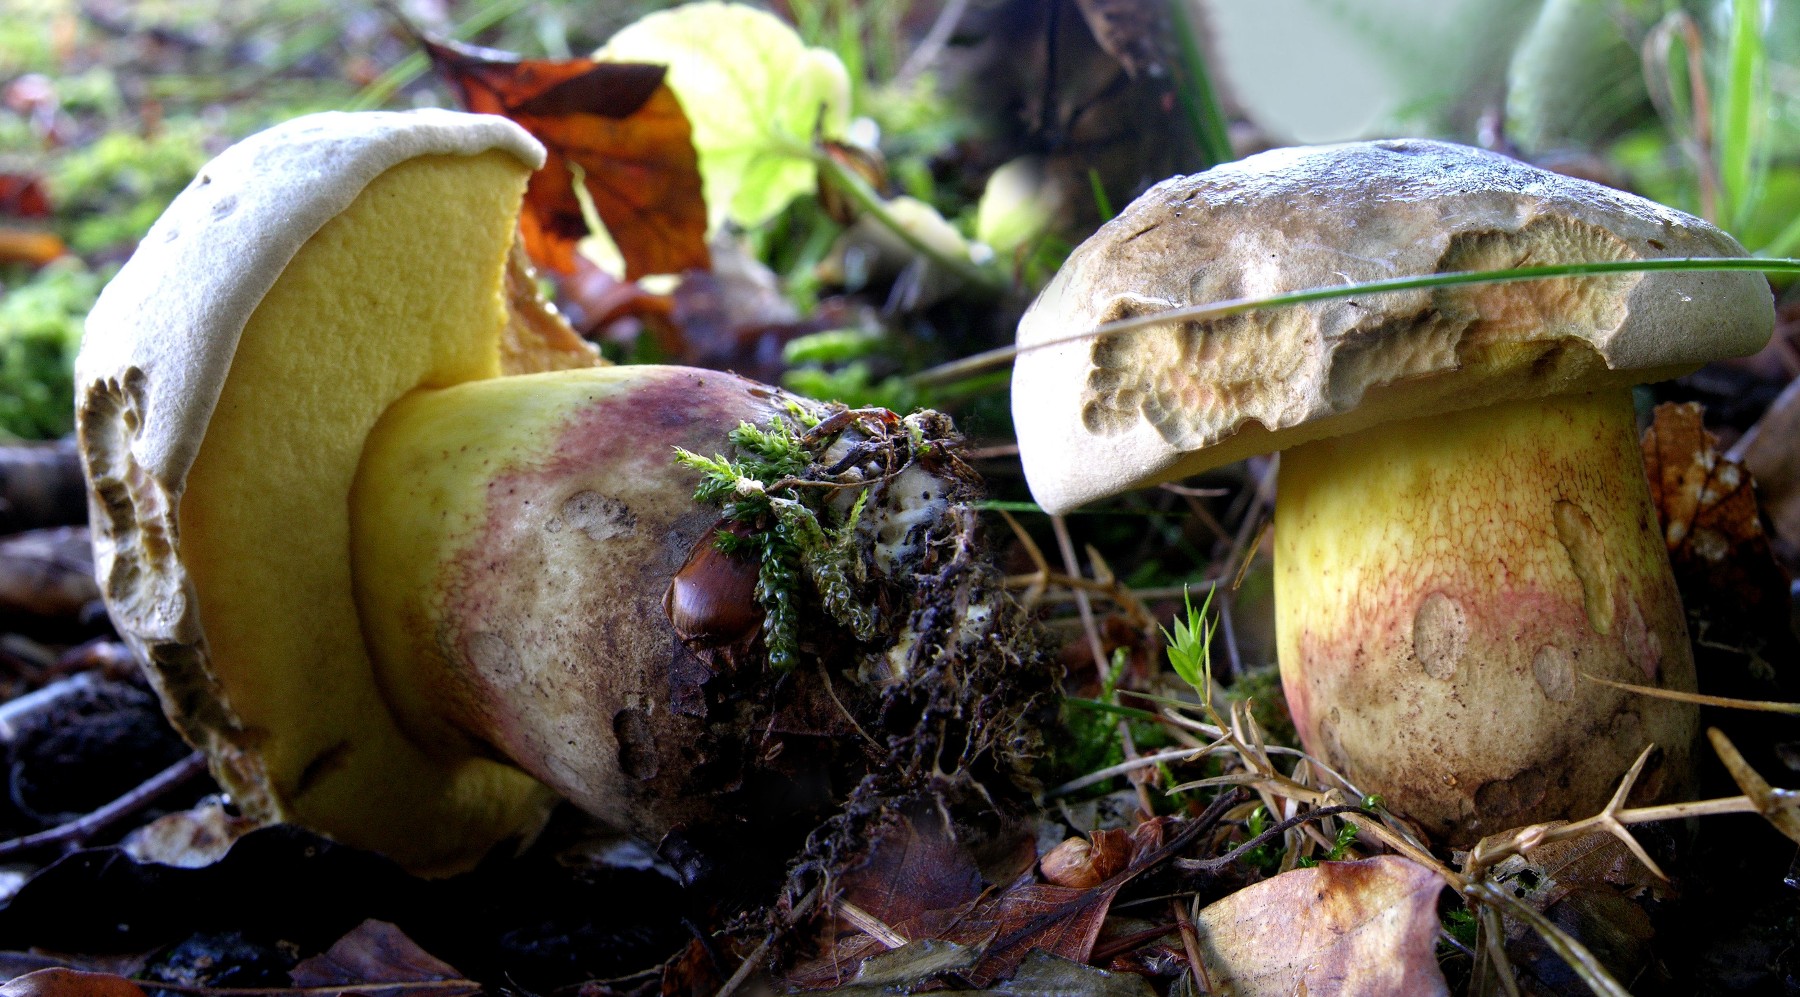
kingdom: Fungi
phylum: Basidiomycota
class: Agaricomycetes
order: Boletales
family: Boletaceae
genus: Butyriboletus
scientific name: Butyriboletus fechtneri
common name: sølvskinnende rørhat
